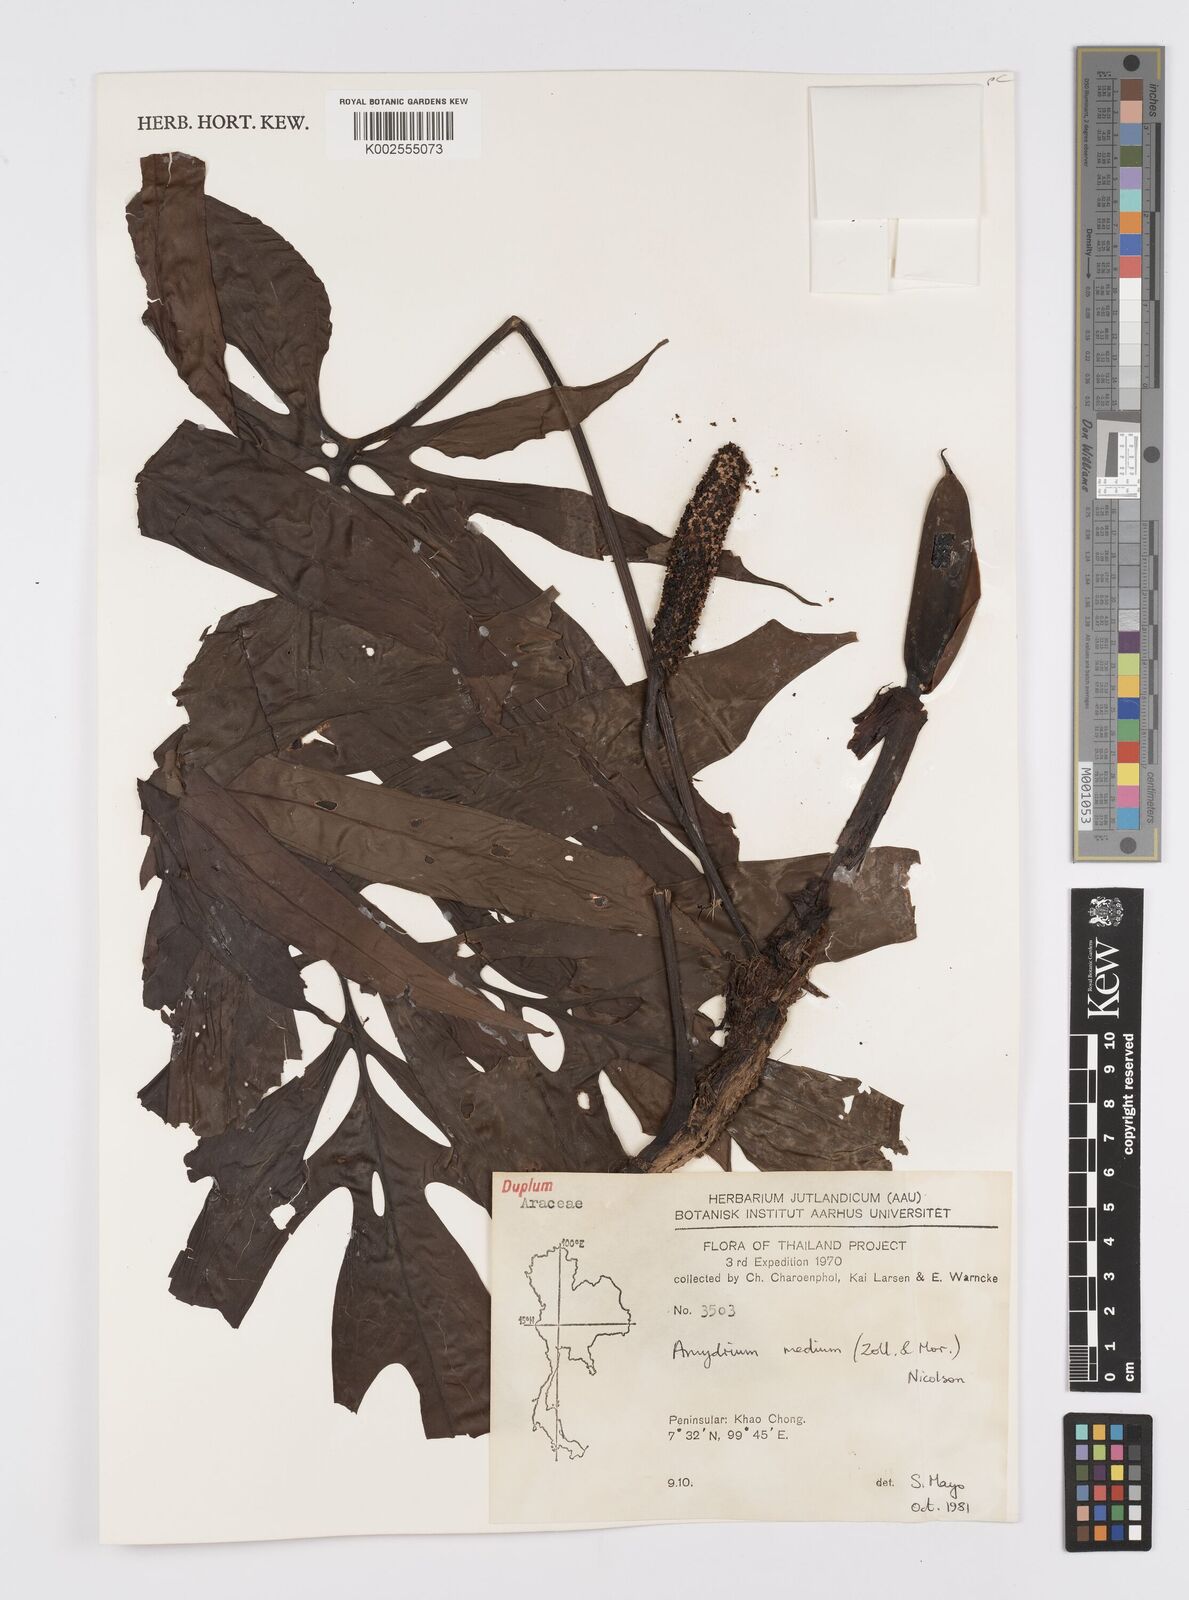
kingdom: Plantae
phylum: Tracheophyta
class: Liliopsida
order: Alismatales
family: Araceae
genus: Amydrium
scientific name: Amydrium medium
